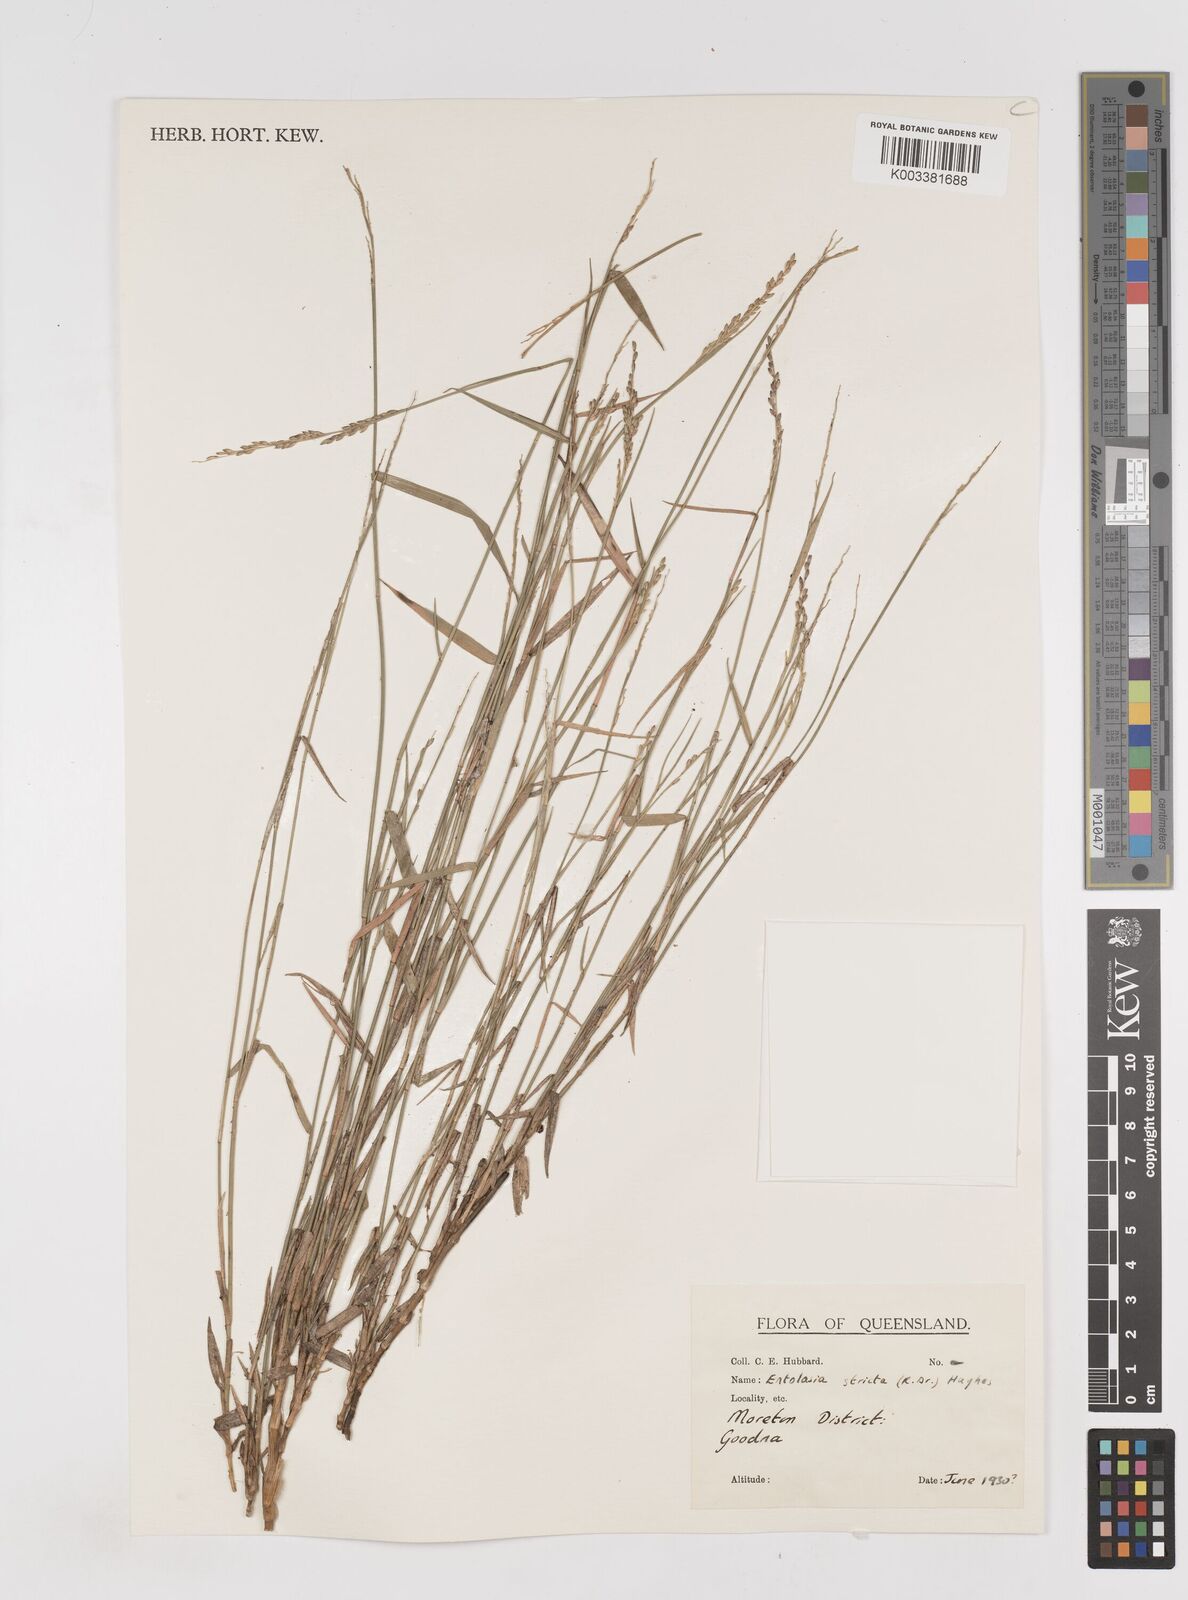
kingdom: Plantae
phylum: Tracheophyta
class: Liliopsida
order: Poales
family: Poaceae
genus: Entolasia
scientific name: Entolasia stricta
